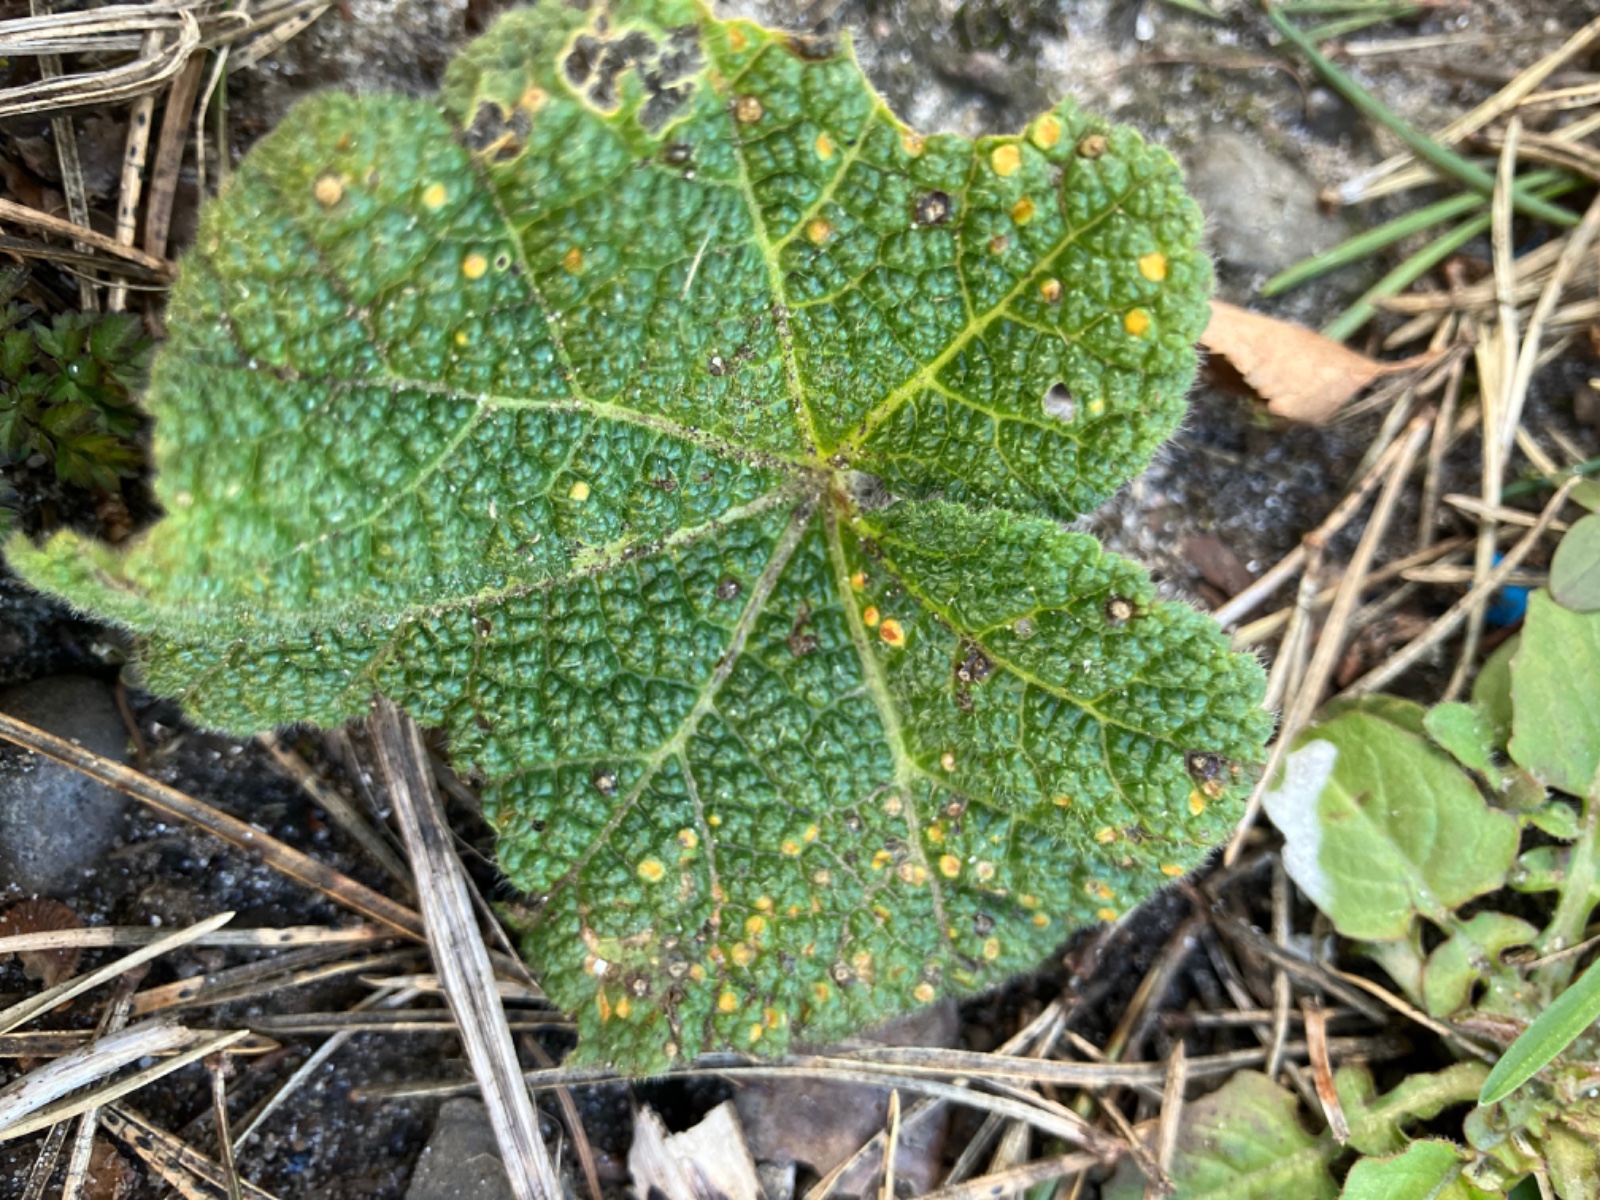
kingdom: Fungi
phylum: Basidiomycota
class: Pucciniomycetes
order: Pucciniales
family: Pucciniaceae
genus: Puccinia
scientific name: Puccinia malvacearum
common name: stokrose-tvecellerust
